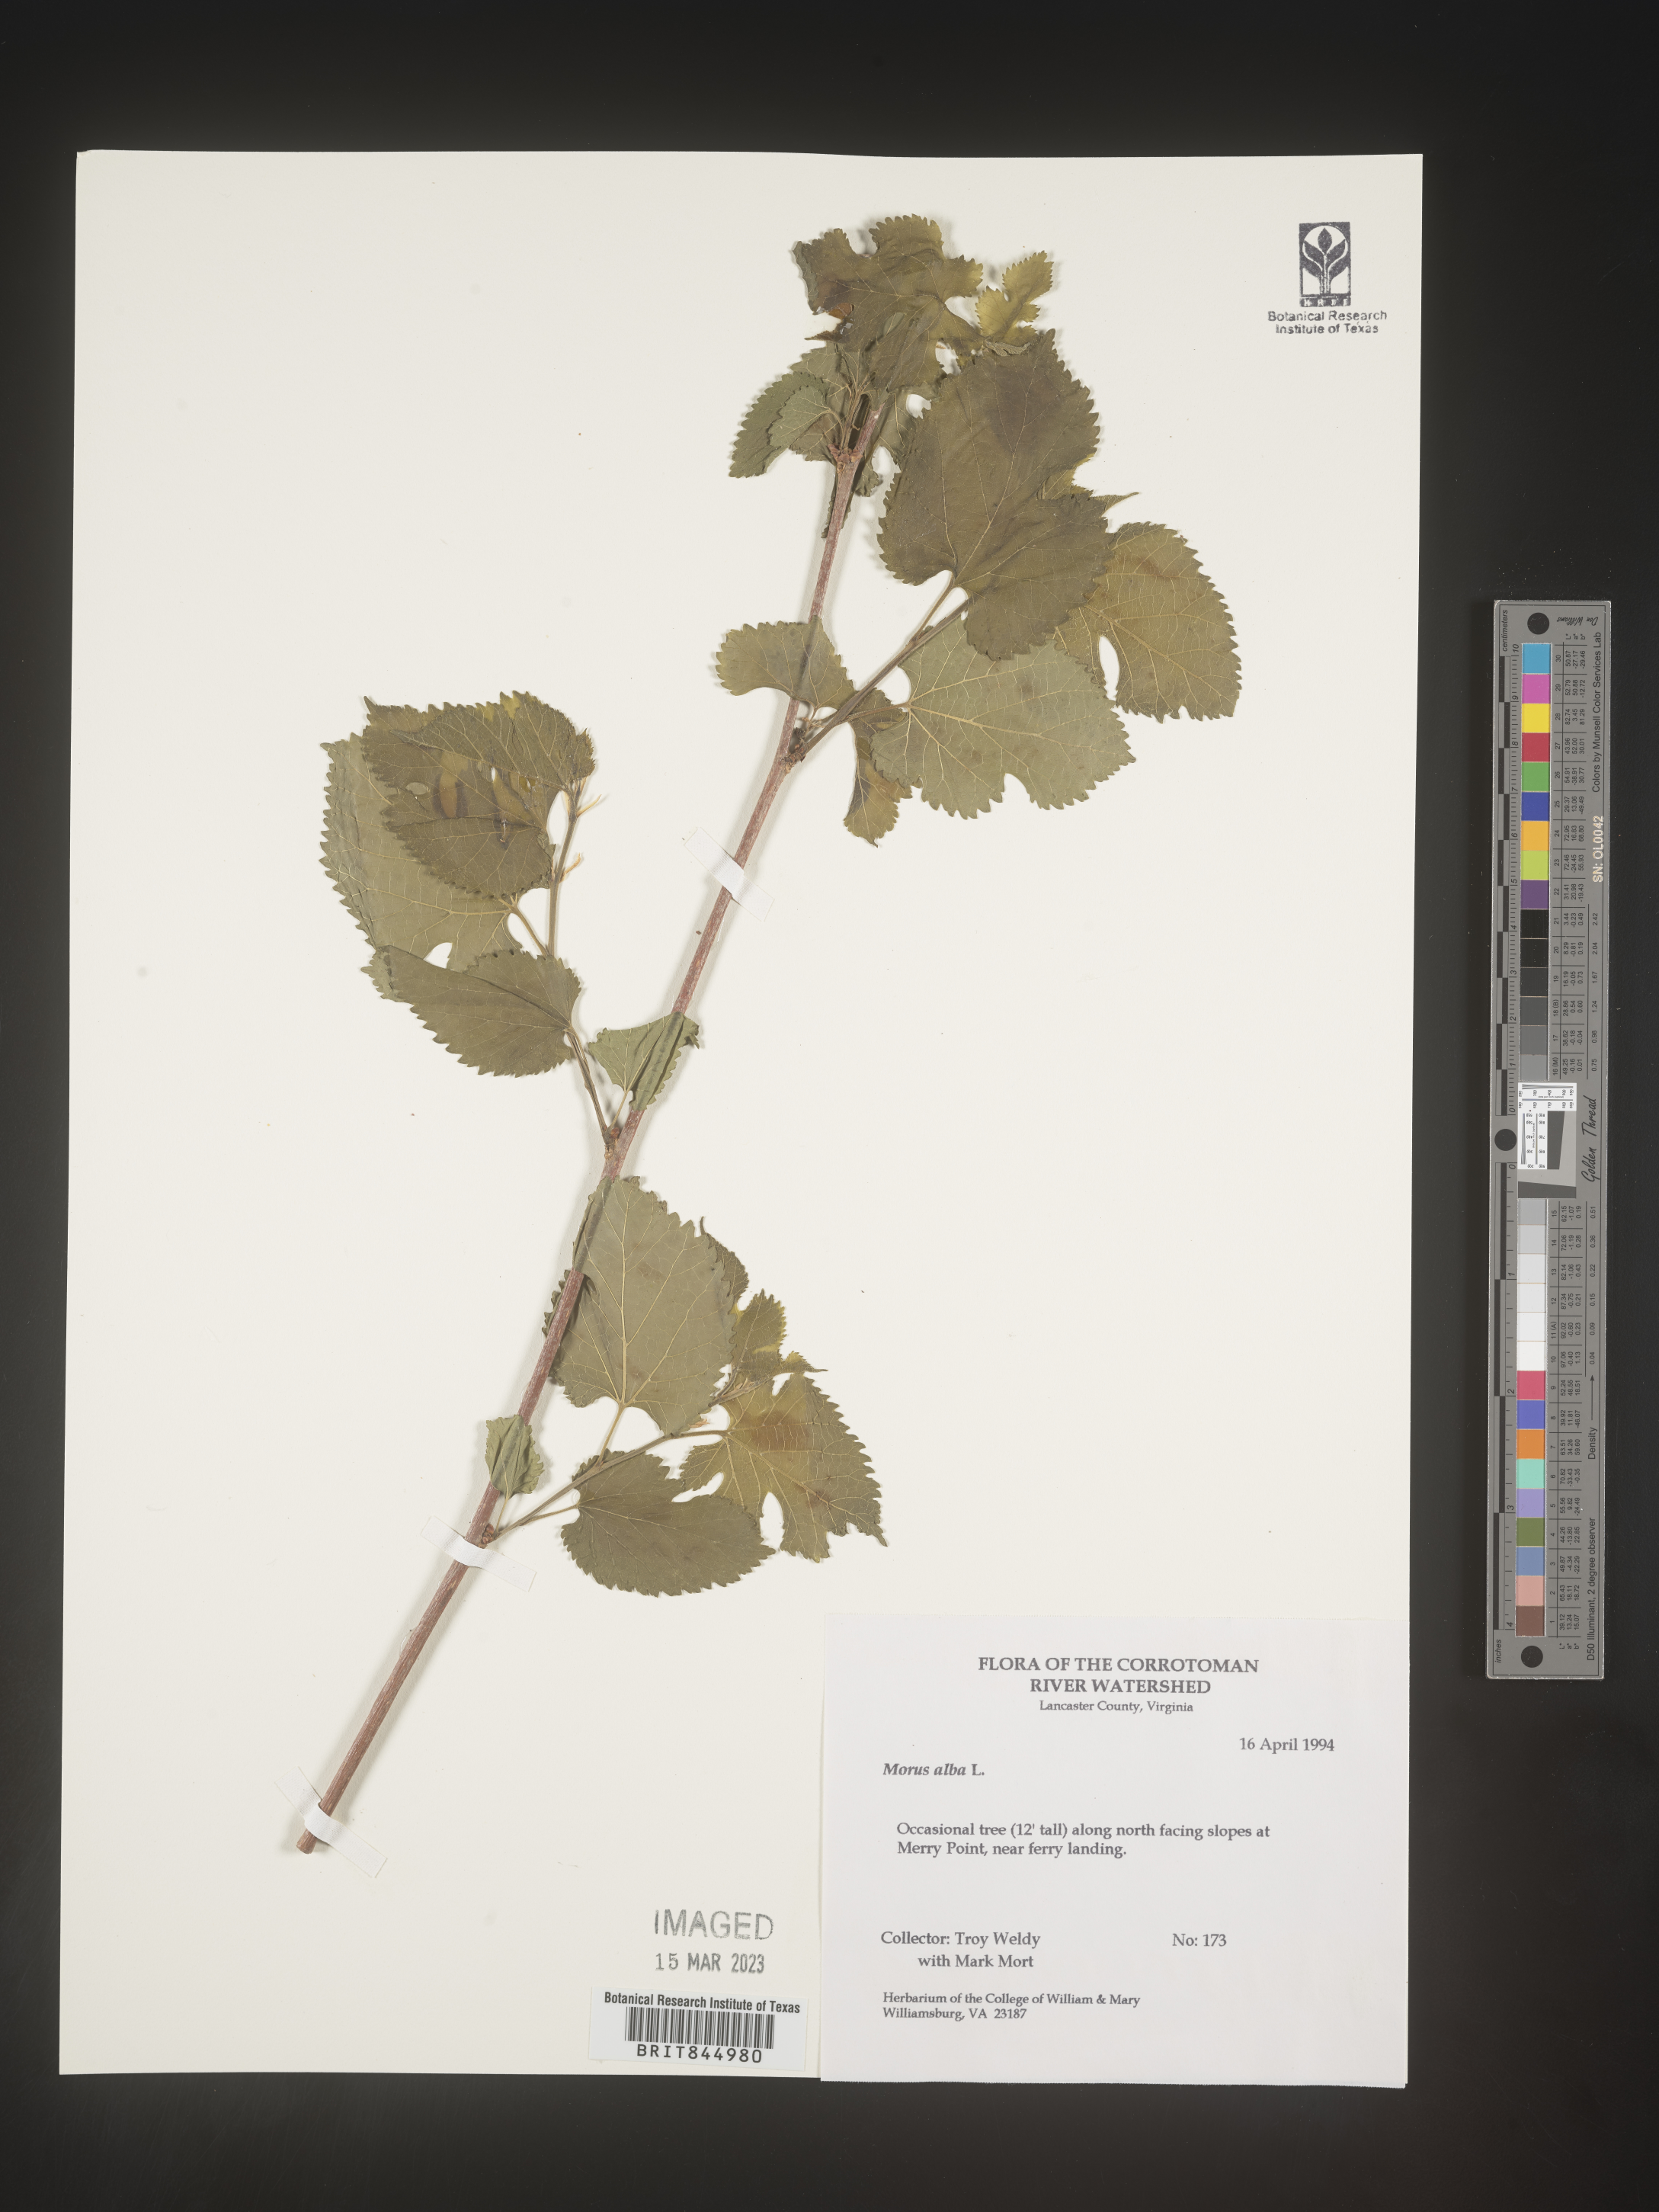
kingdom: Plantae
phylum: Tracheophyta
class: Magnoliopsida
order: Rosales
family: Moraceae
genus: Morus
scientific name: Morus alba
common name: White mulberry
